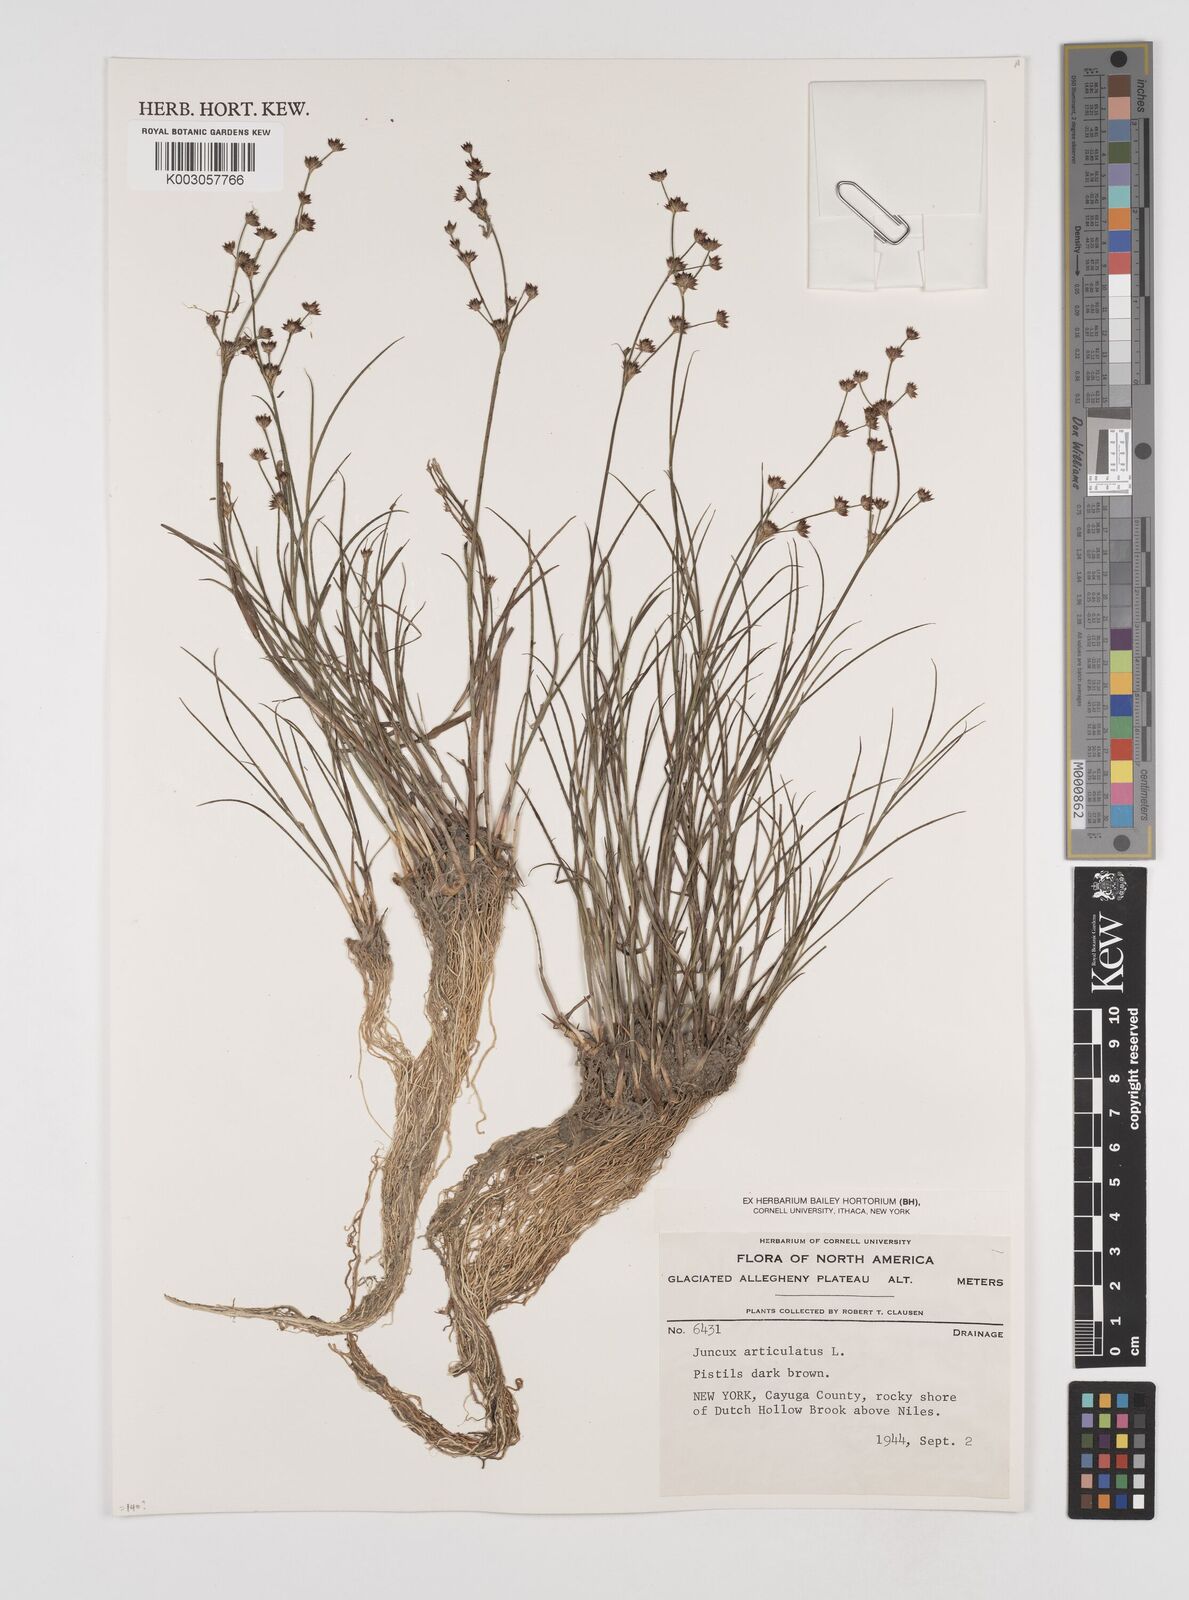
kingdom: Plantae
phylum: Tracheophyta
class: Liliopsida
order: Poales
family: Juncaceae
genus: Juncus
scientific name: Juncus articulatus
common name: Jointed rush
